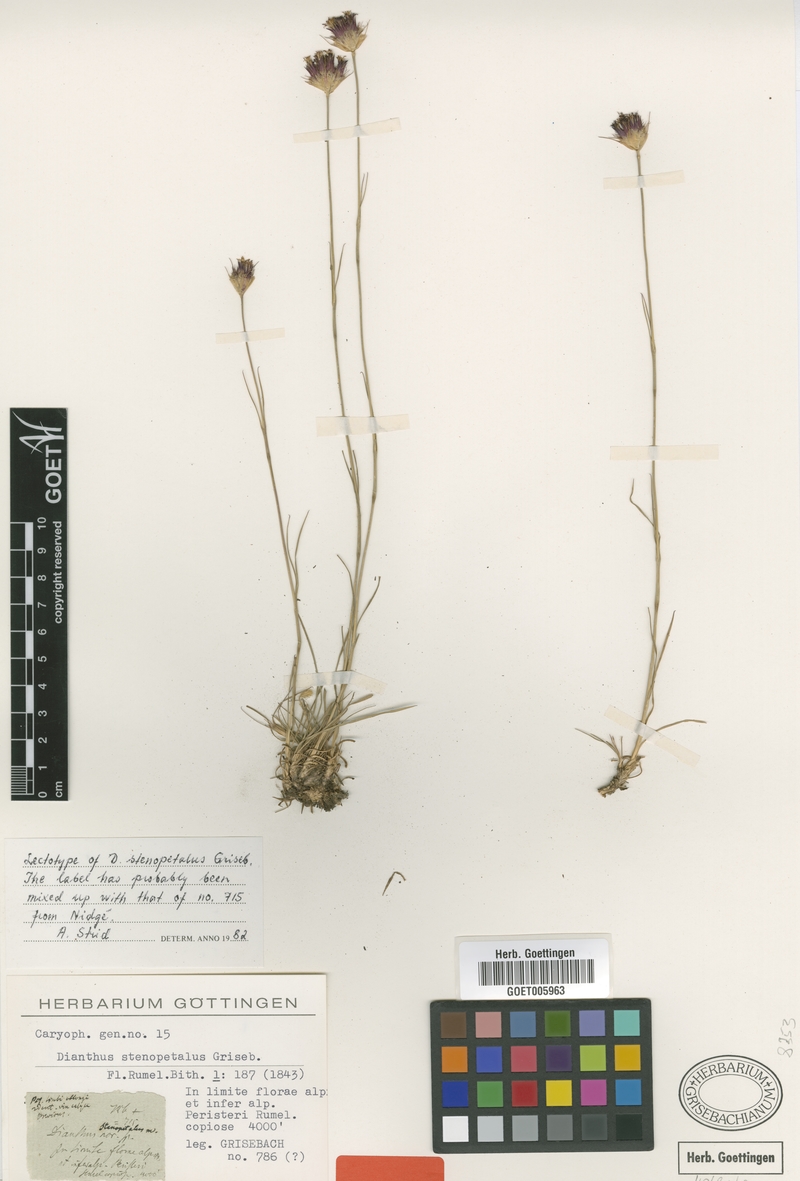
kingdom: Plantae
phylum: Tracheophyta
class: Magnoliopsida
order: Caryophyllales
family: Caryophyllaceae
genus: Dianthus
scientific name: Dianthus stenopetalus
